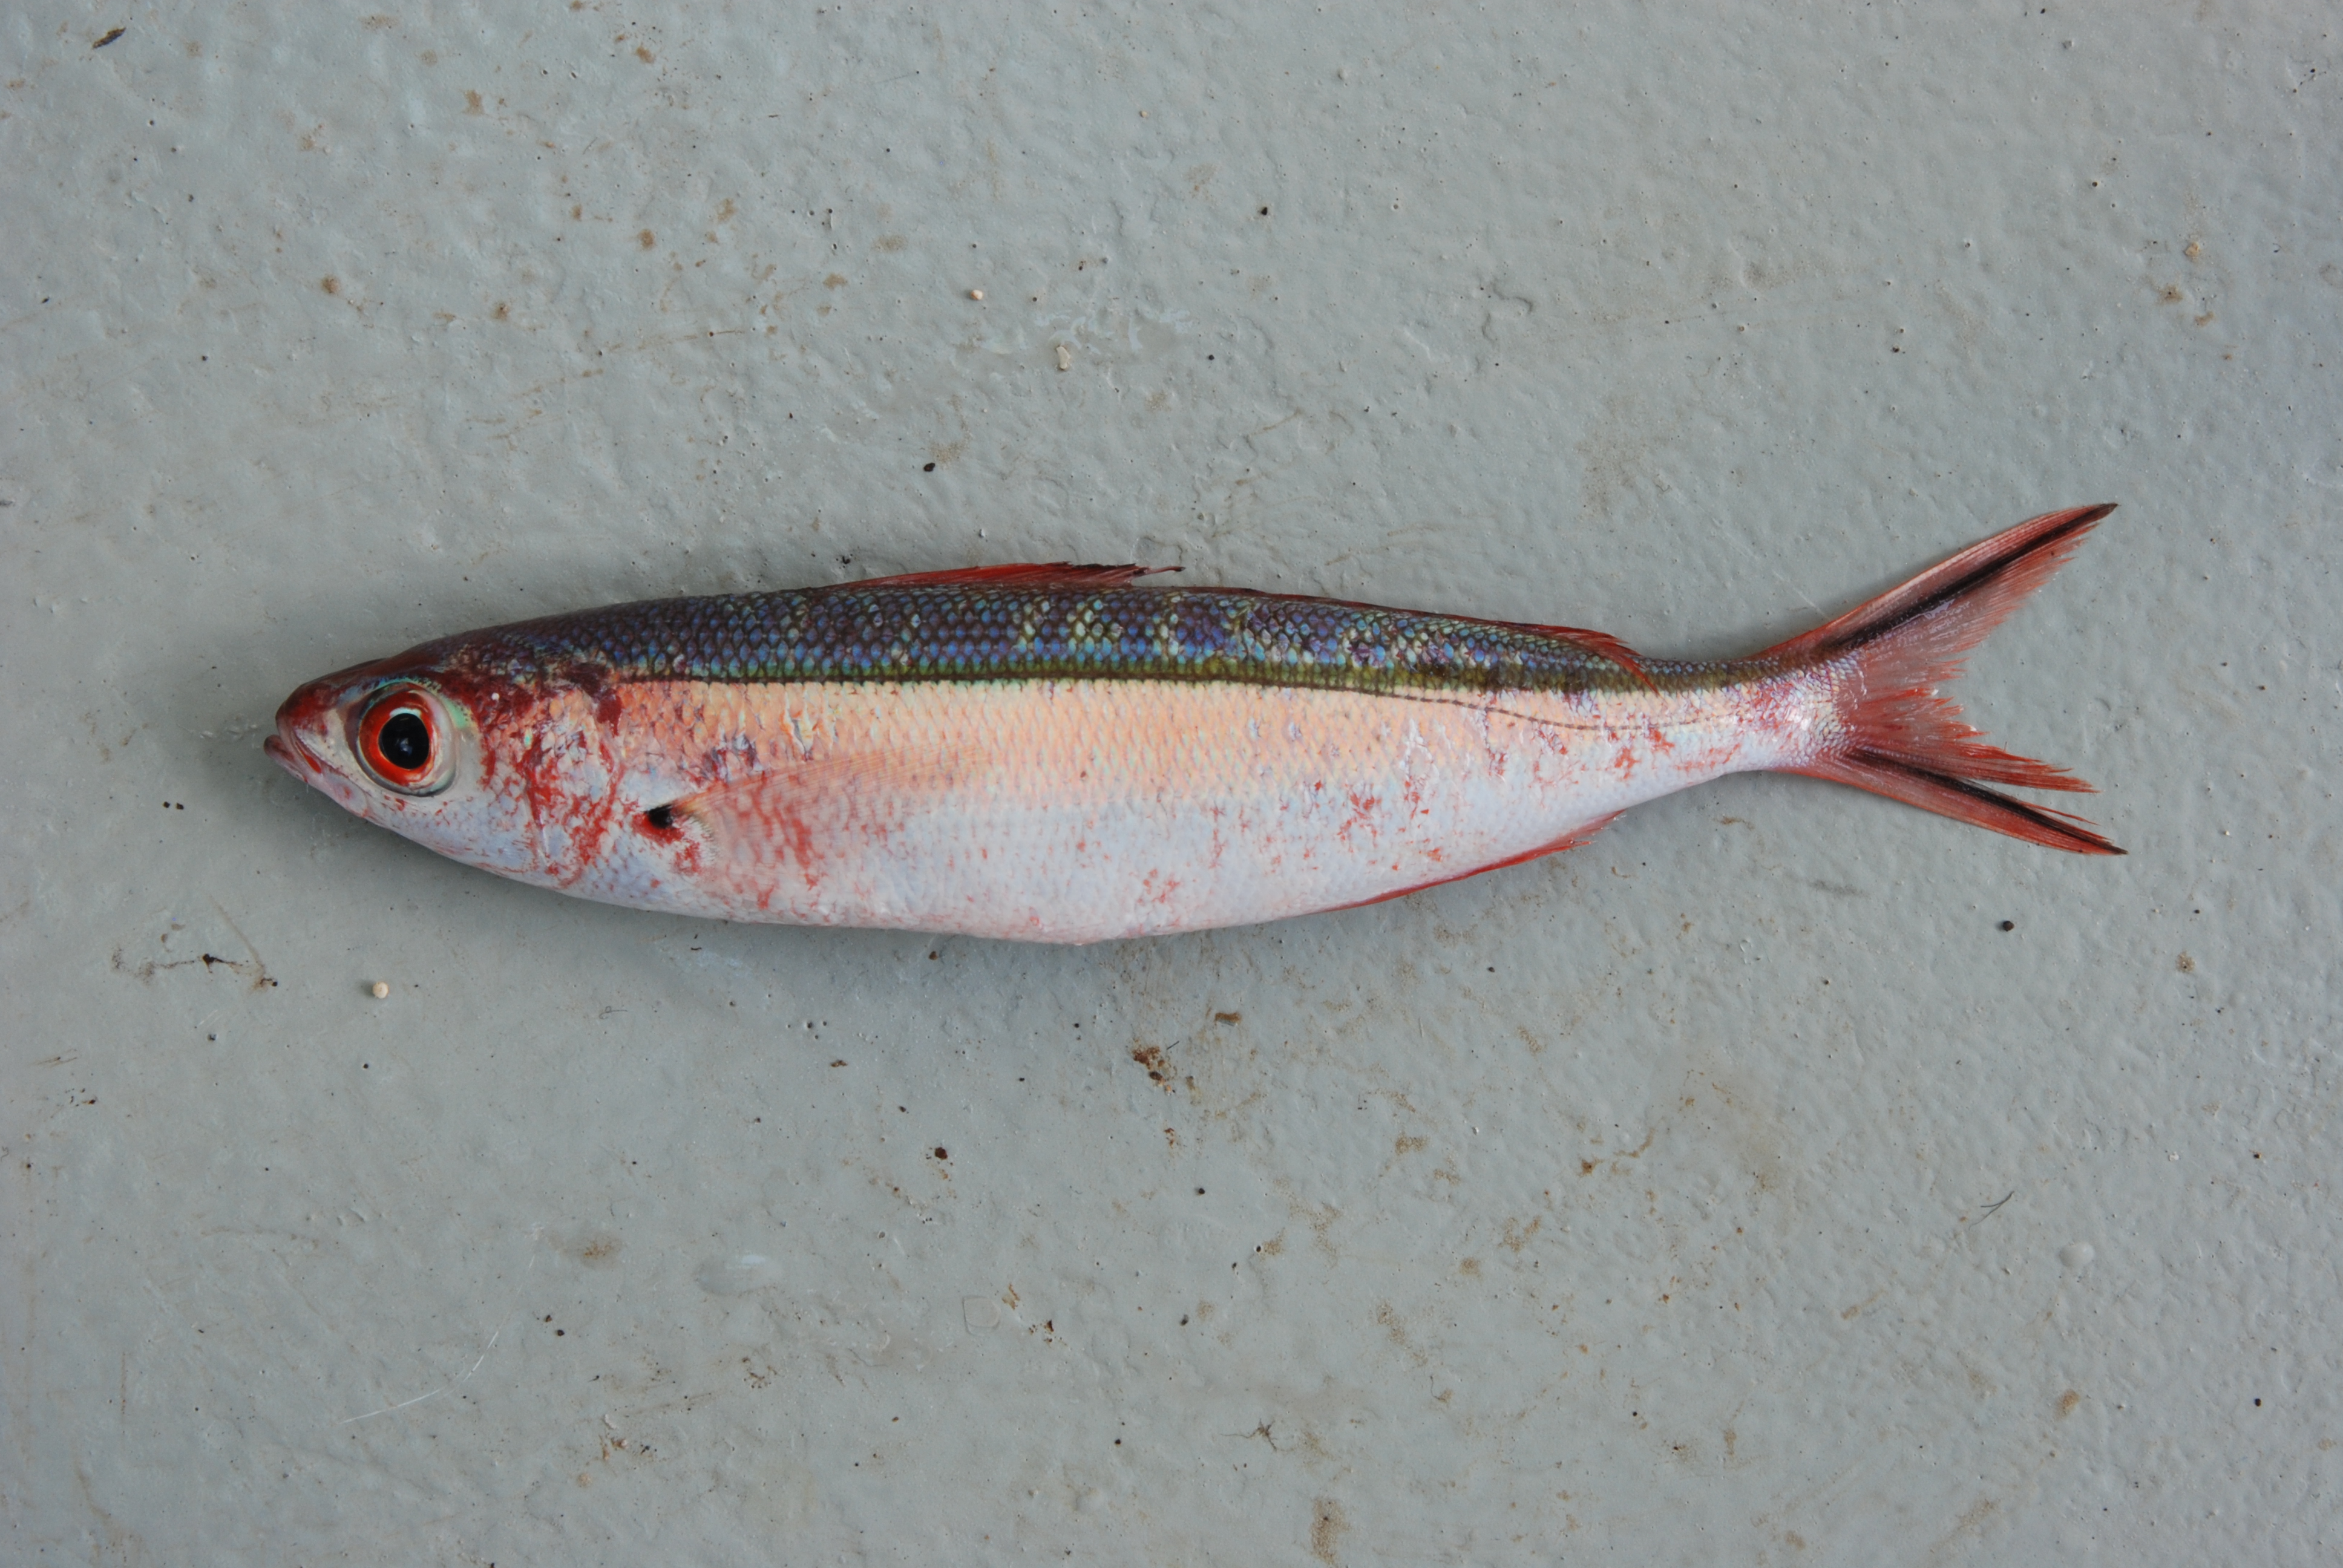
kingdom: Animalia
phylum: Chordata
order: Perciformes
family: Caesionidae
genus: Pterocaesio
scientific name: Pterocaesio tile
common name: Dark-banded fusilier
